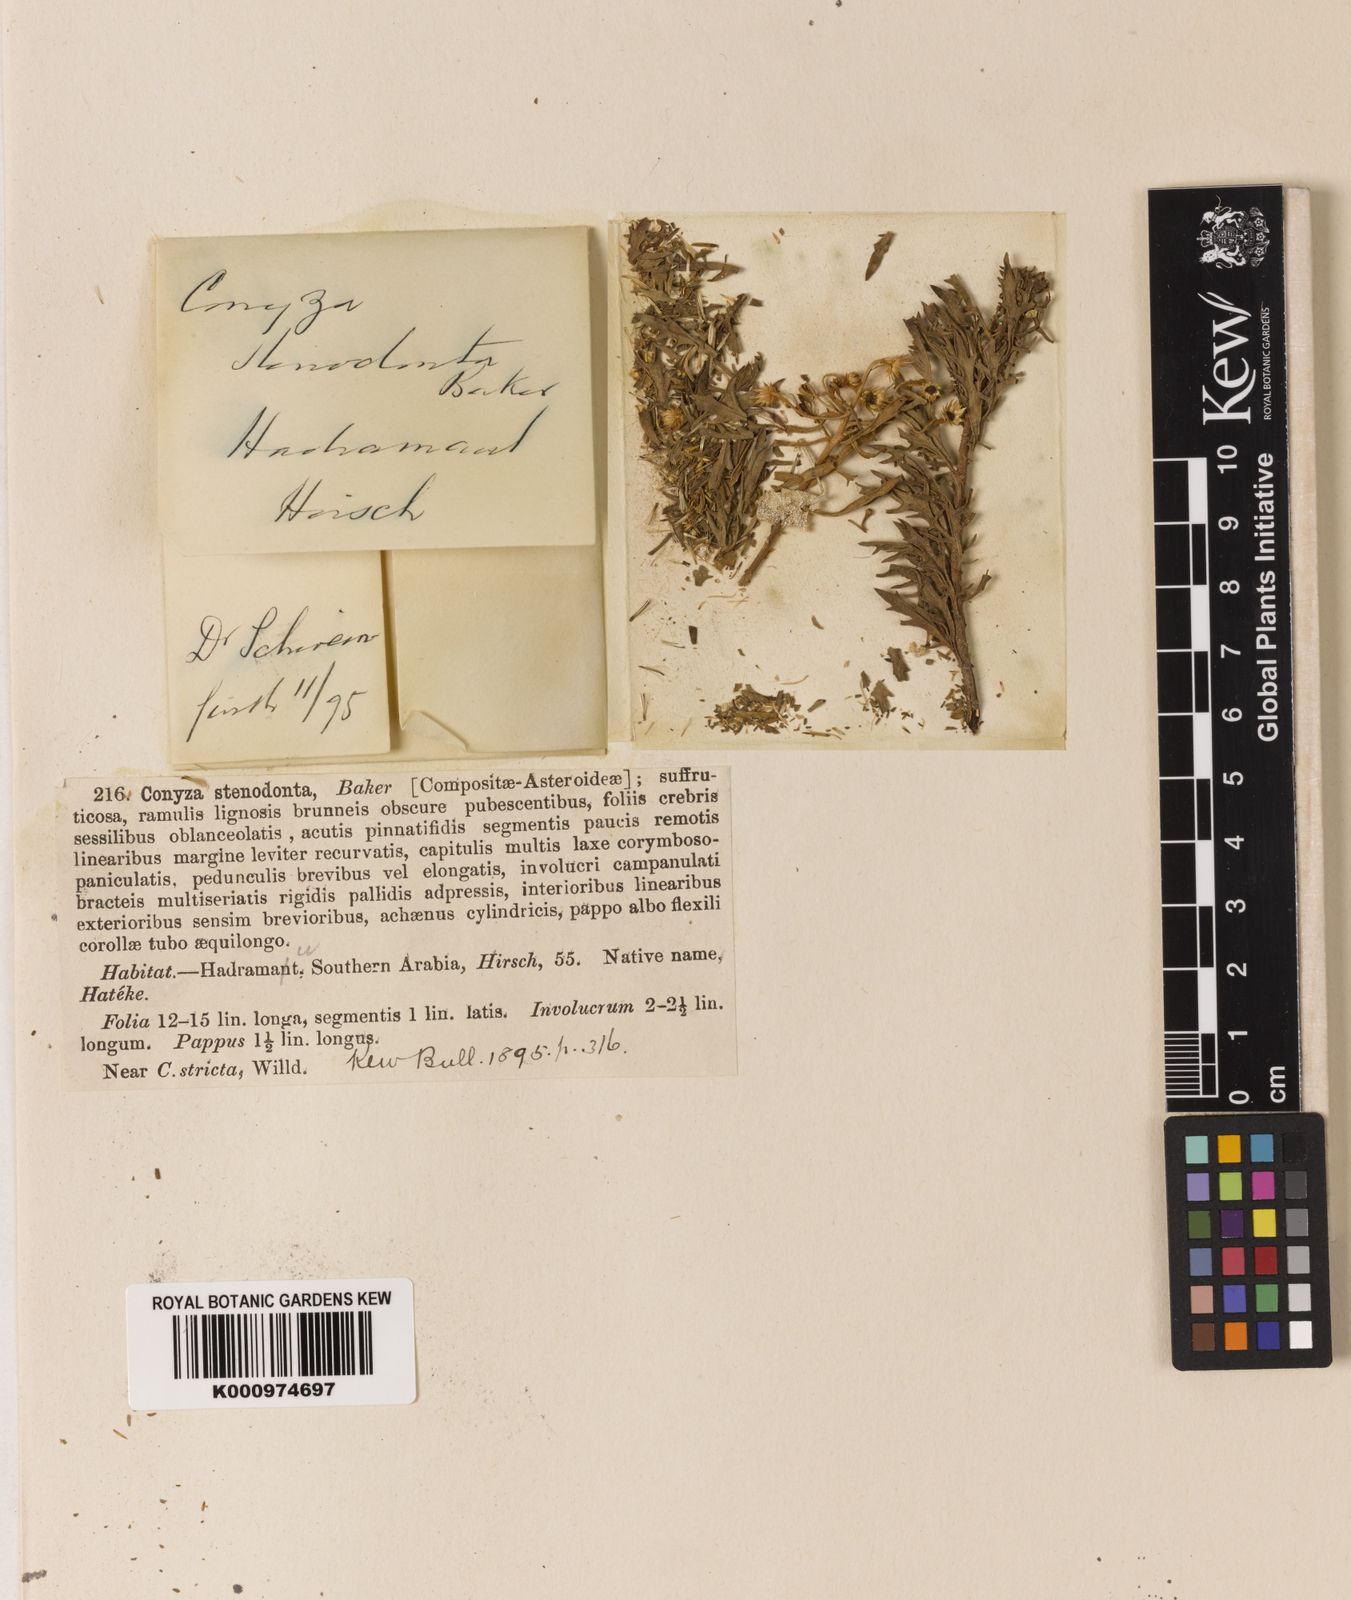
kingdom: Plantae
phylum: Tracheophyta
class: Magnoliopsida
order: Asterales
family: Asteraceae
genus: Pluchea
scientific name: Pluchea arabica
